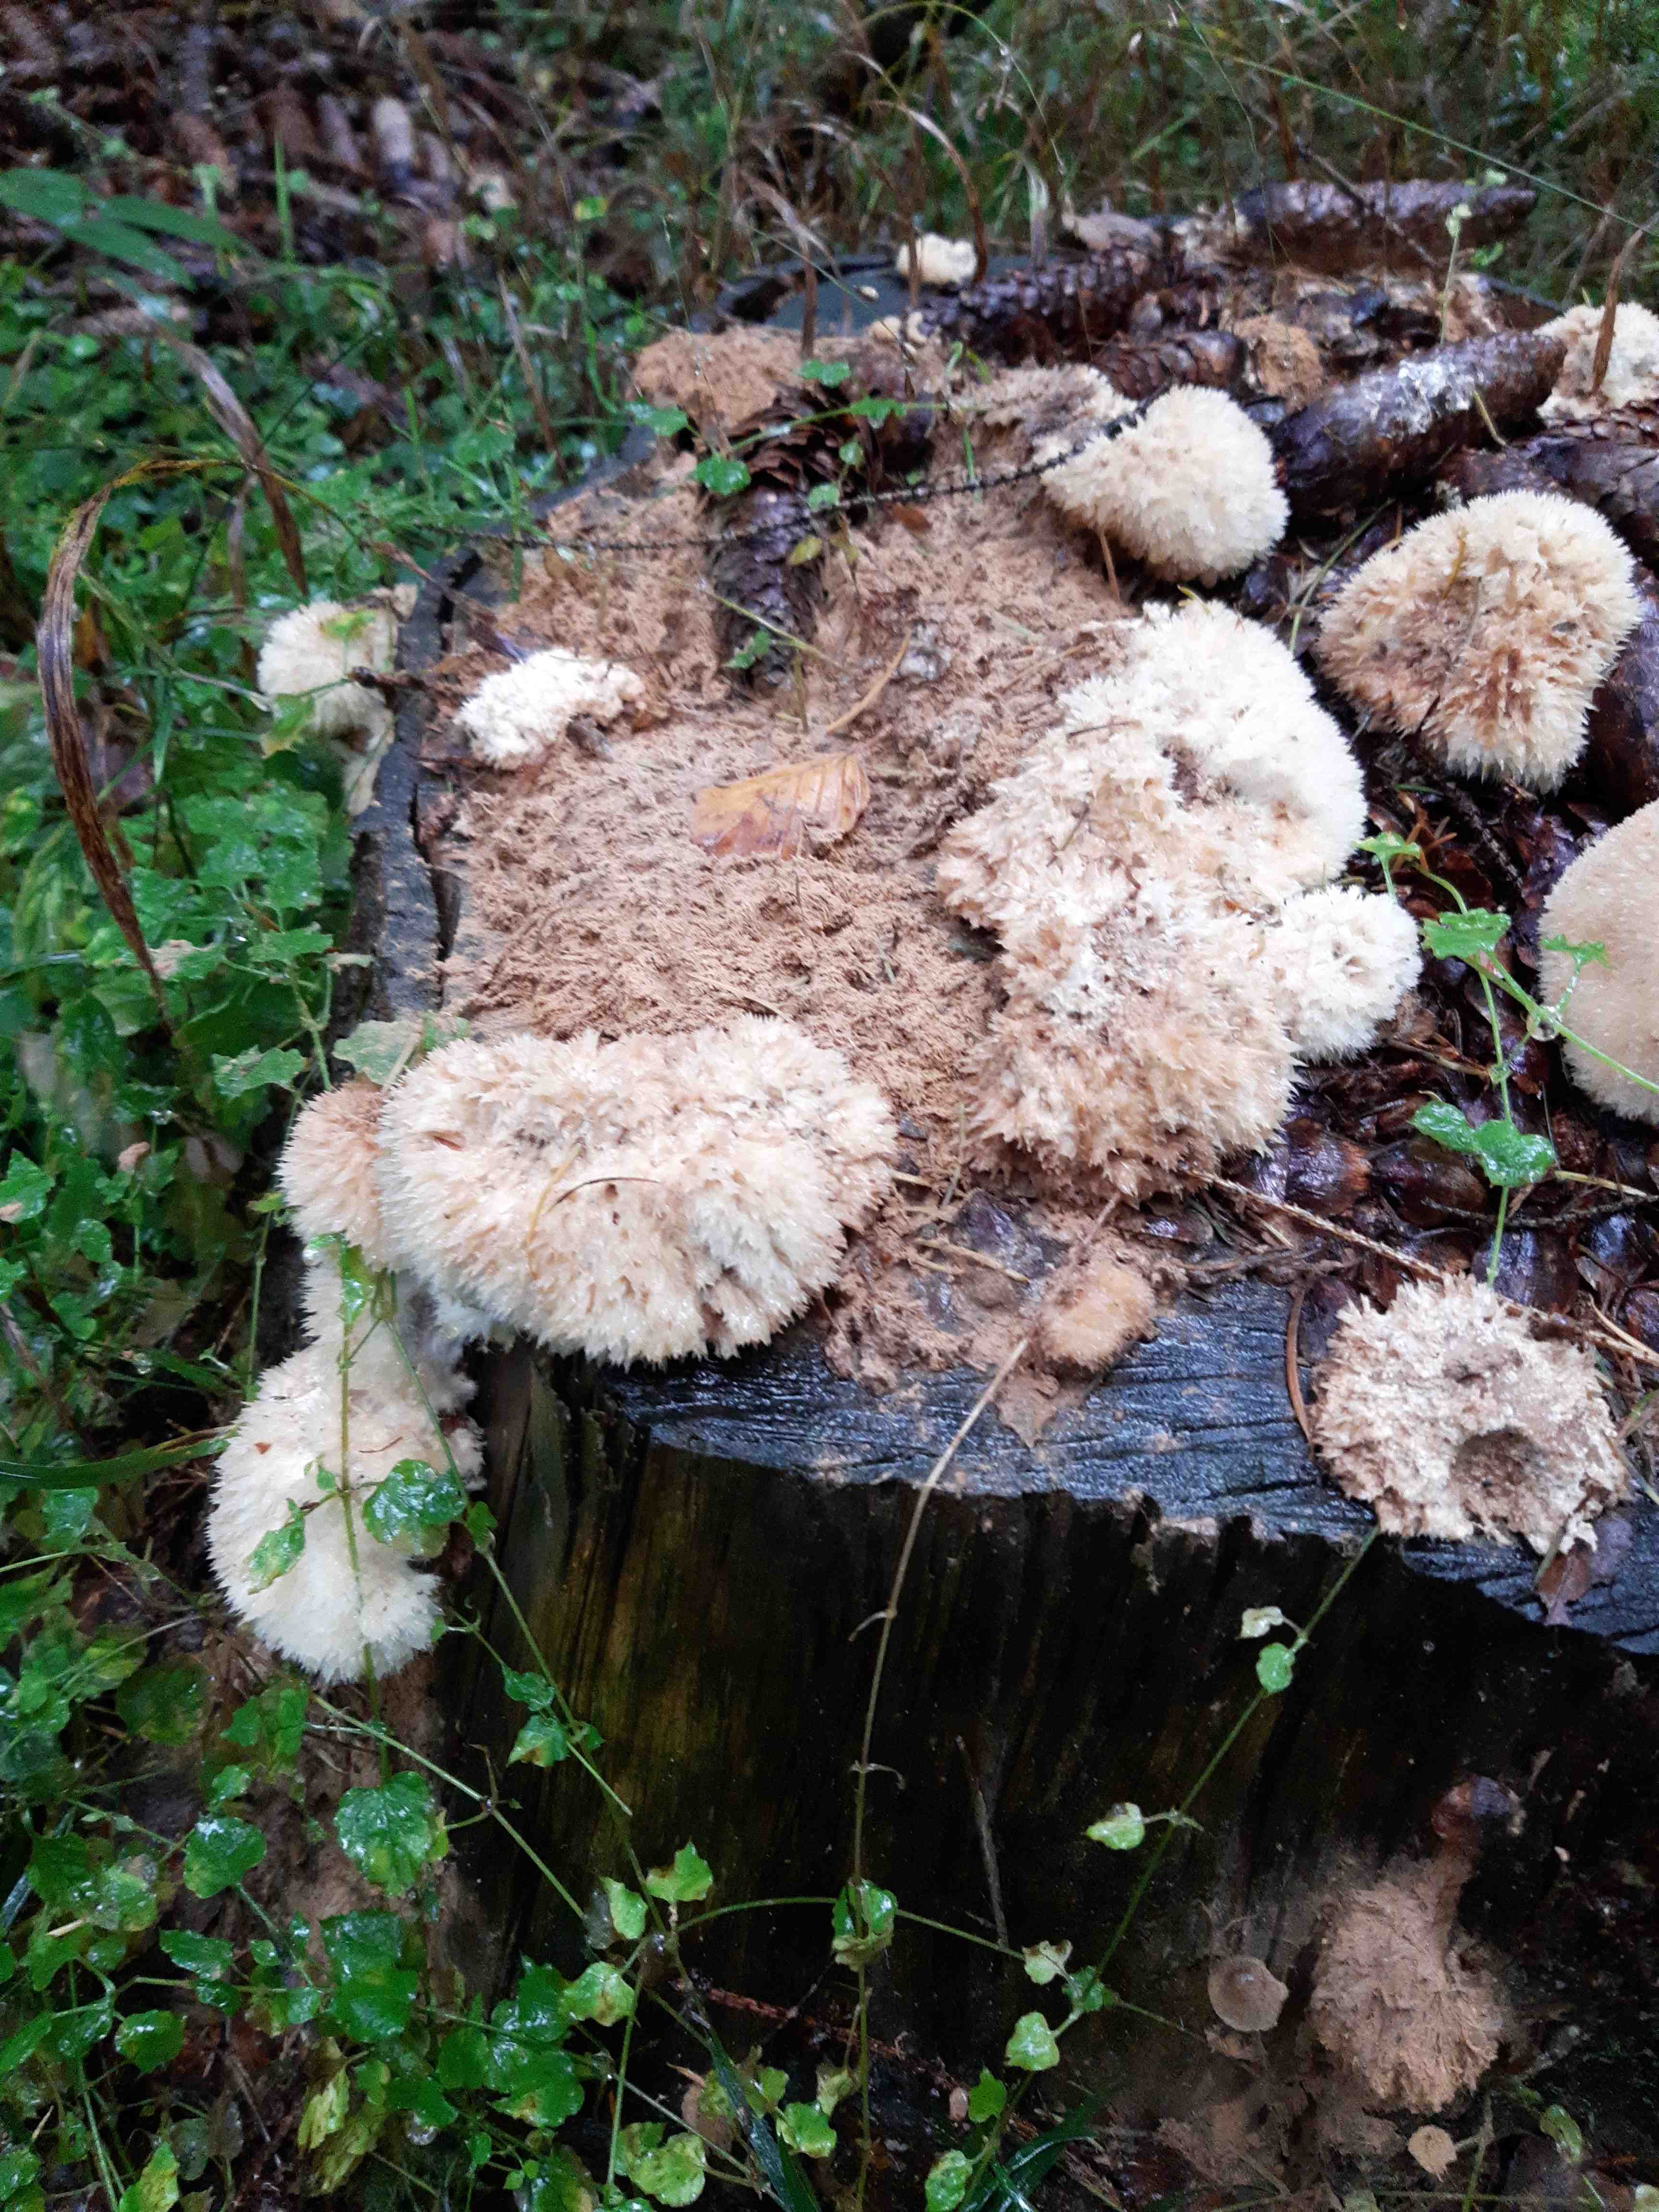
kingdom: Fungi
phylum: Basidiomycota
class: Agaricomycetes
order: Polyporales
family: Dacryobolaceae
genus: Postia
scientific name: Postia ptychogaster
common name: støvende kødporesvamp
